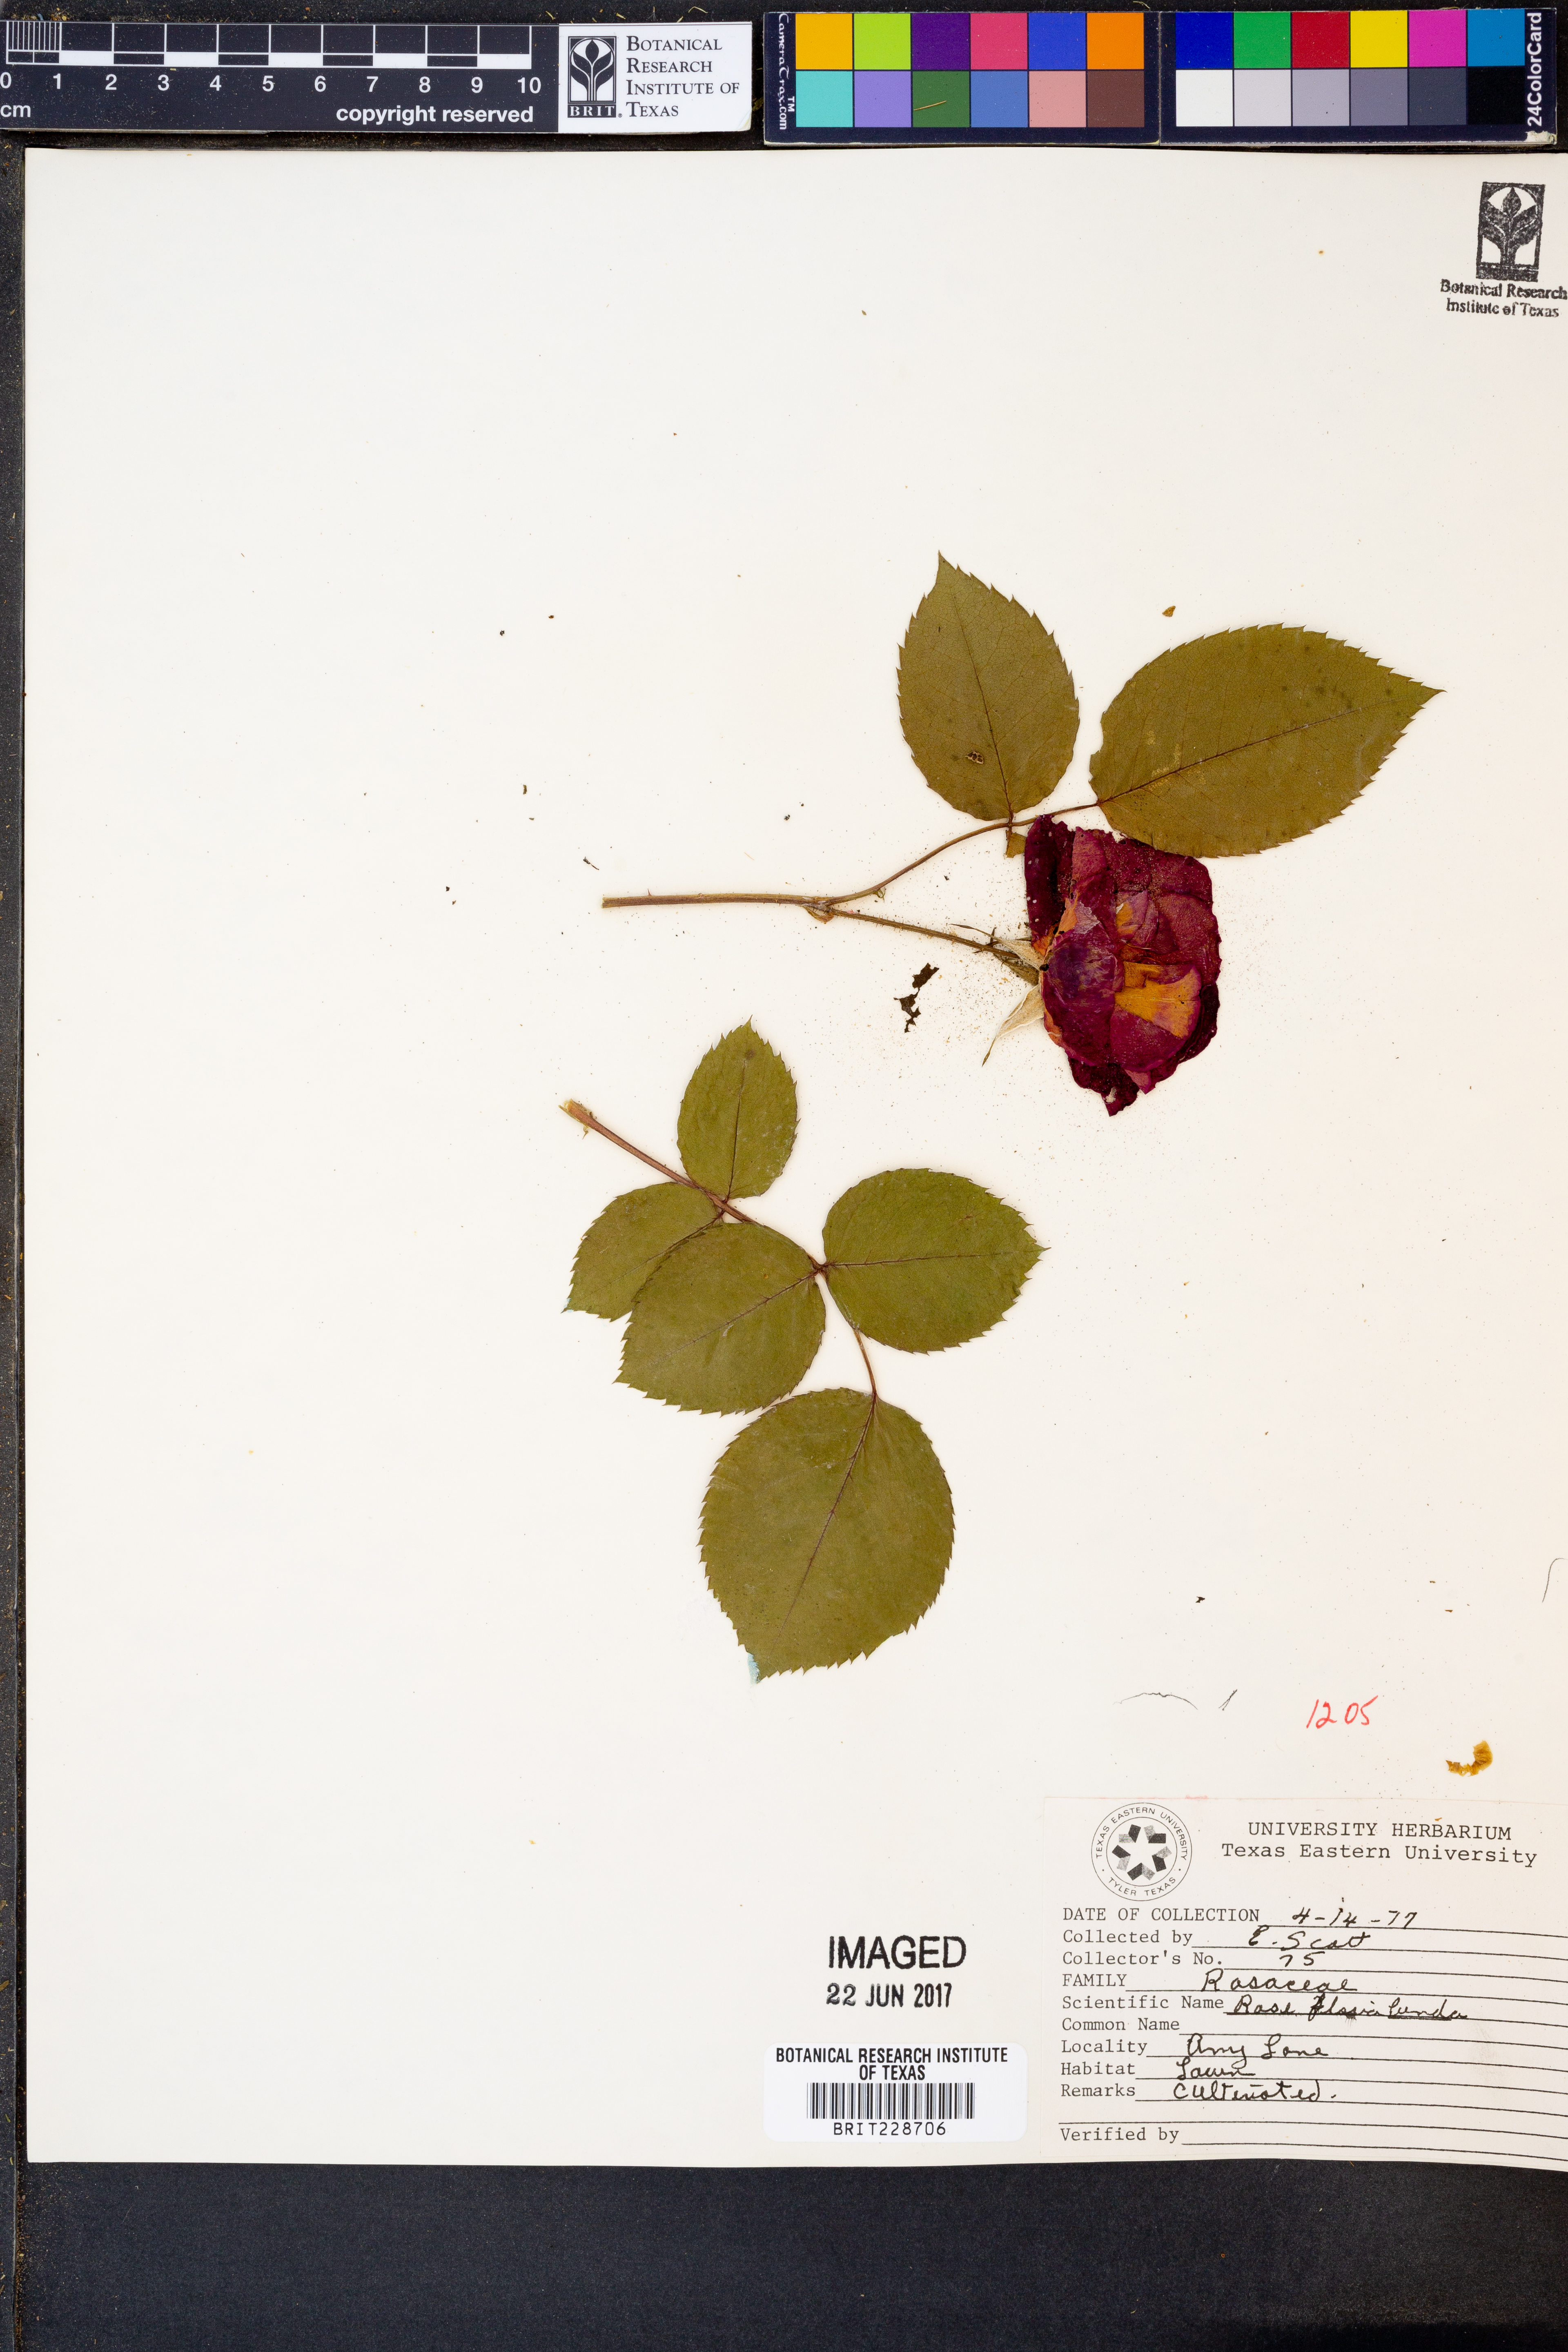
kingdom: Plantae
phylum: Tracheophyta
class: Magnoliopsida
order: Rosales
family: Rosaceae
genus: Rosa
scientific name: Rosa palustris
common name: Swamp rose
